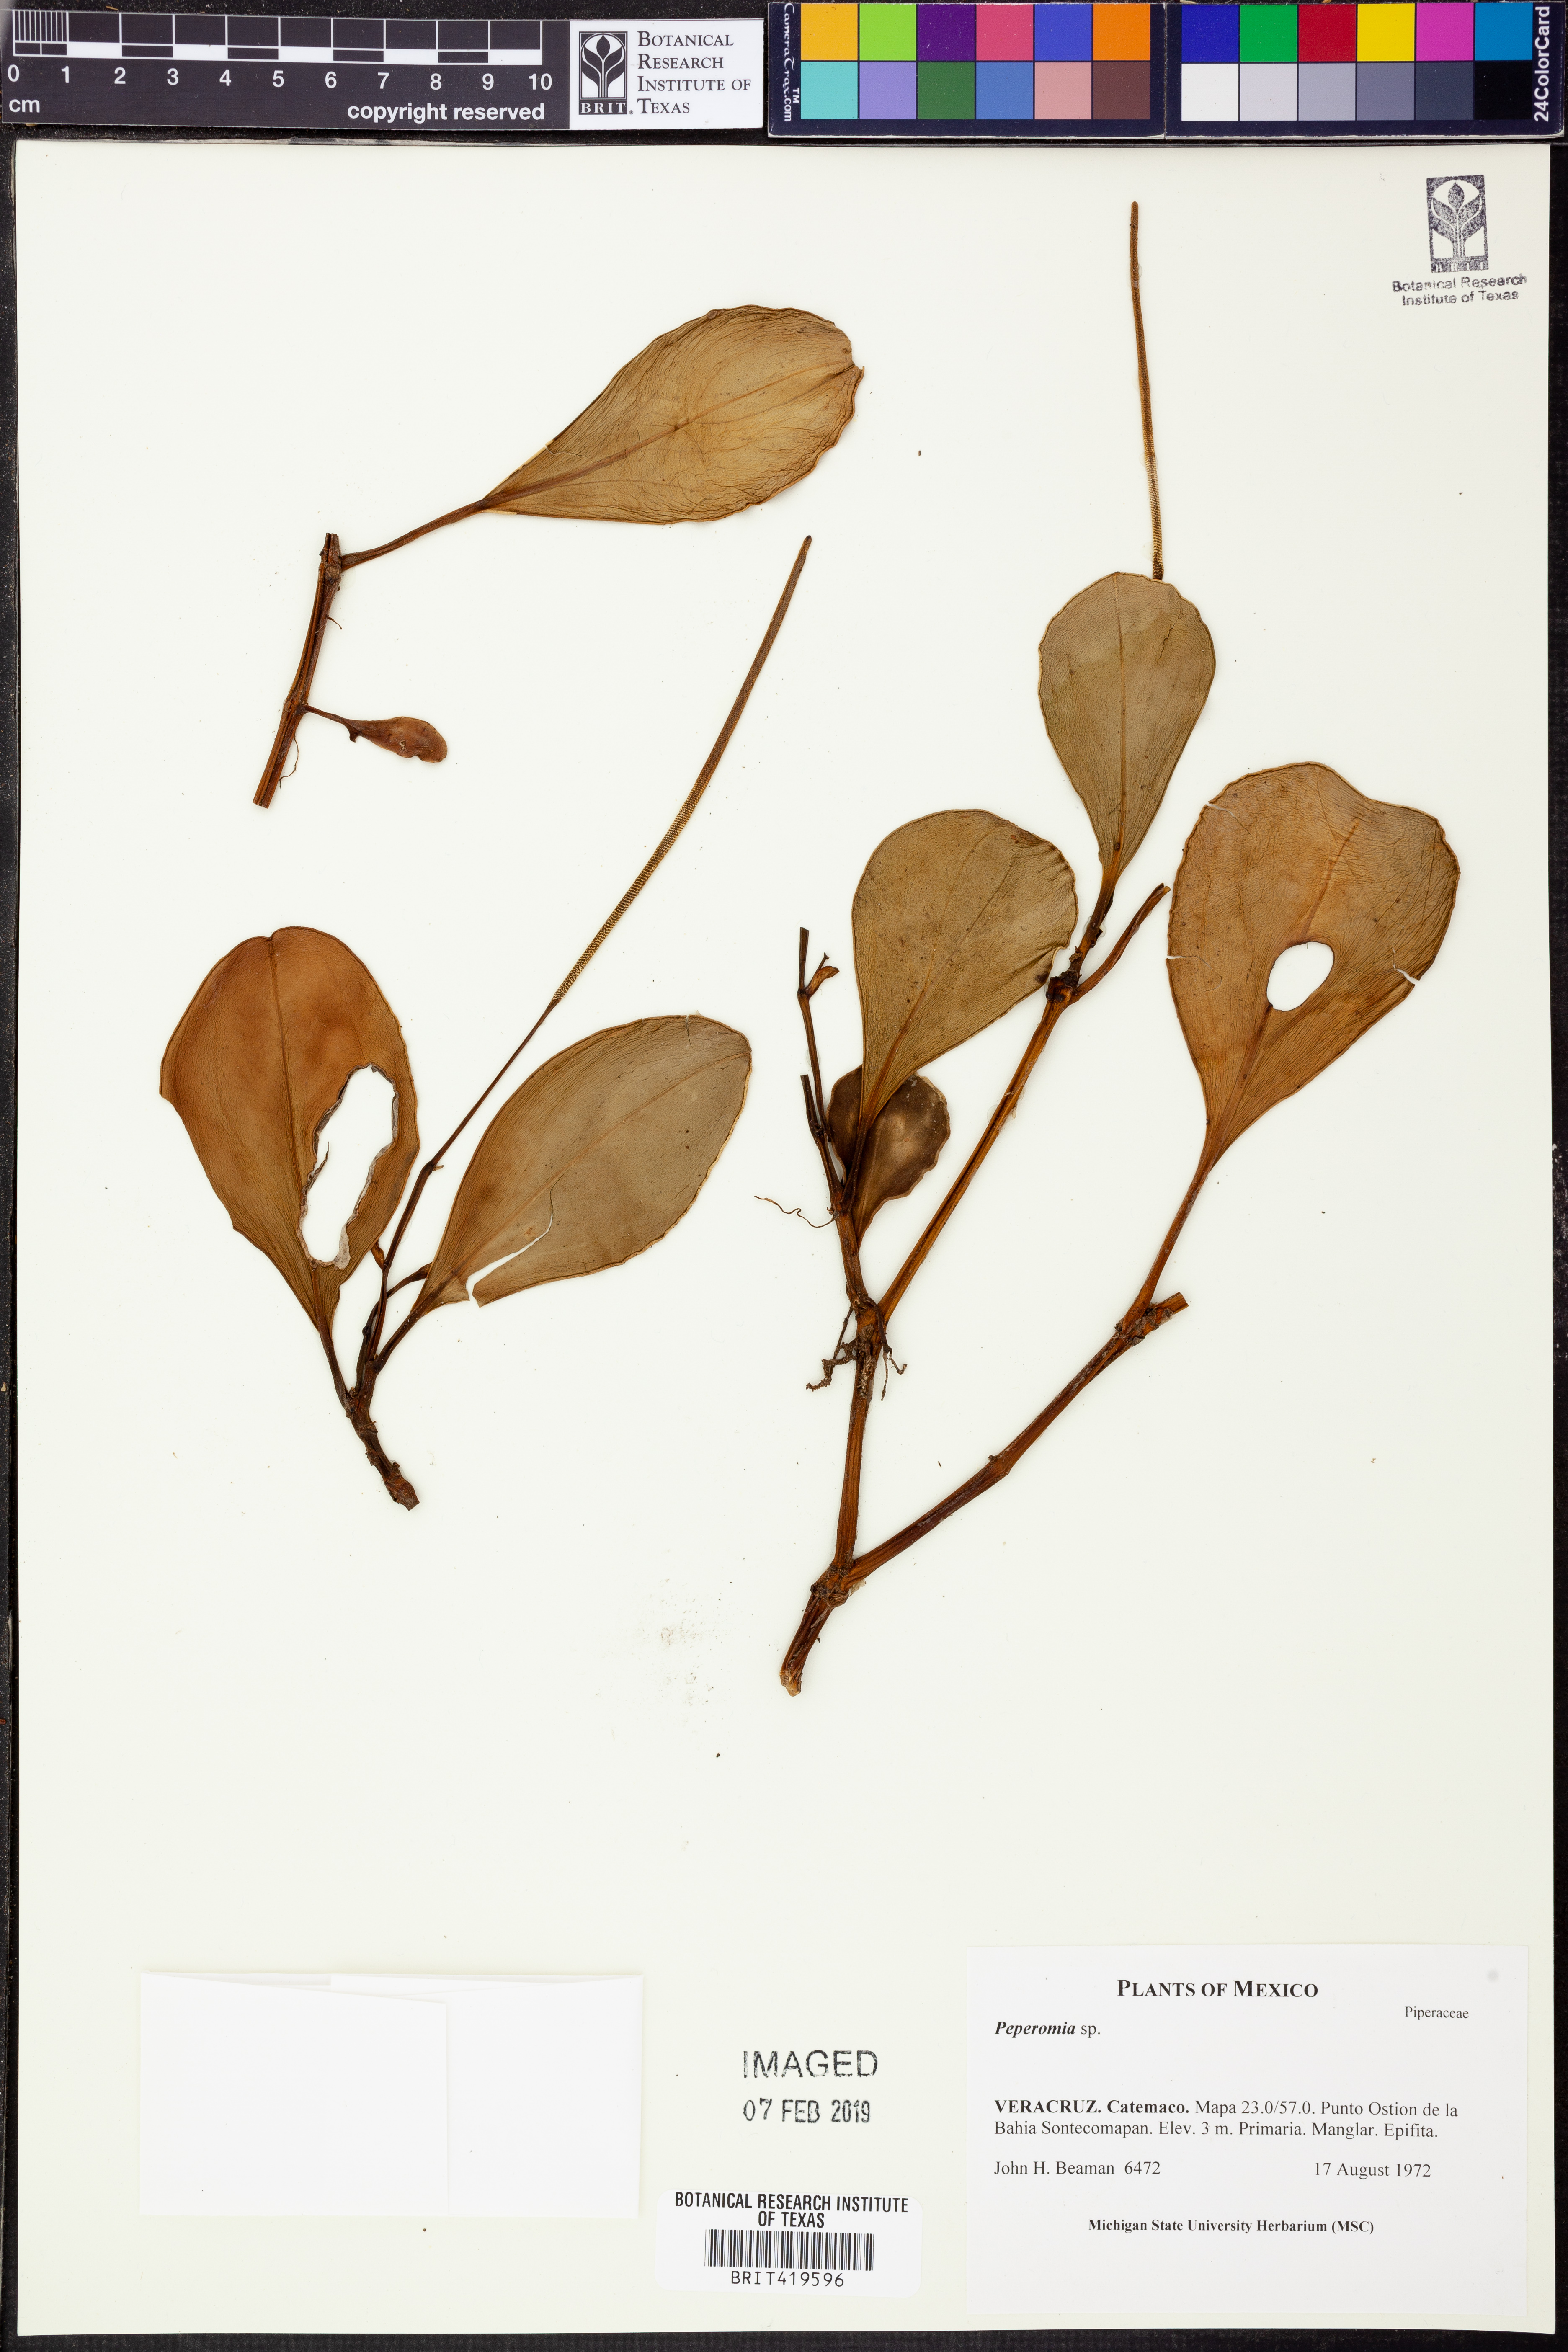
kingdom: Plantae
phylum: Tracheophyta
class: Magnoliopsida
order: Piperales
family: Piperaceae
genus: Peperomia
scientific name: Peperomia
